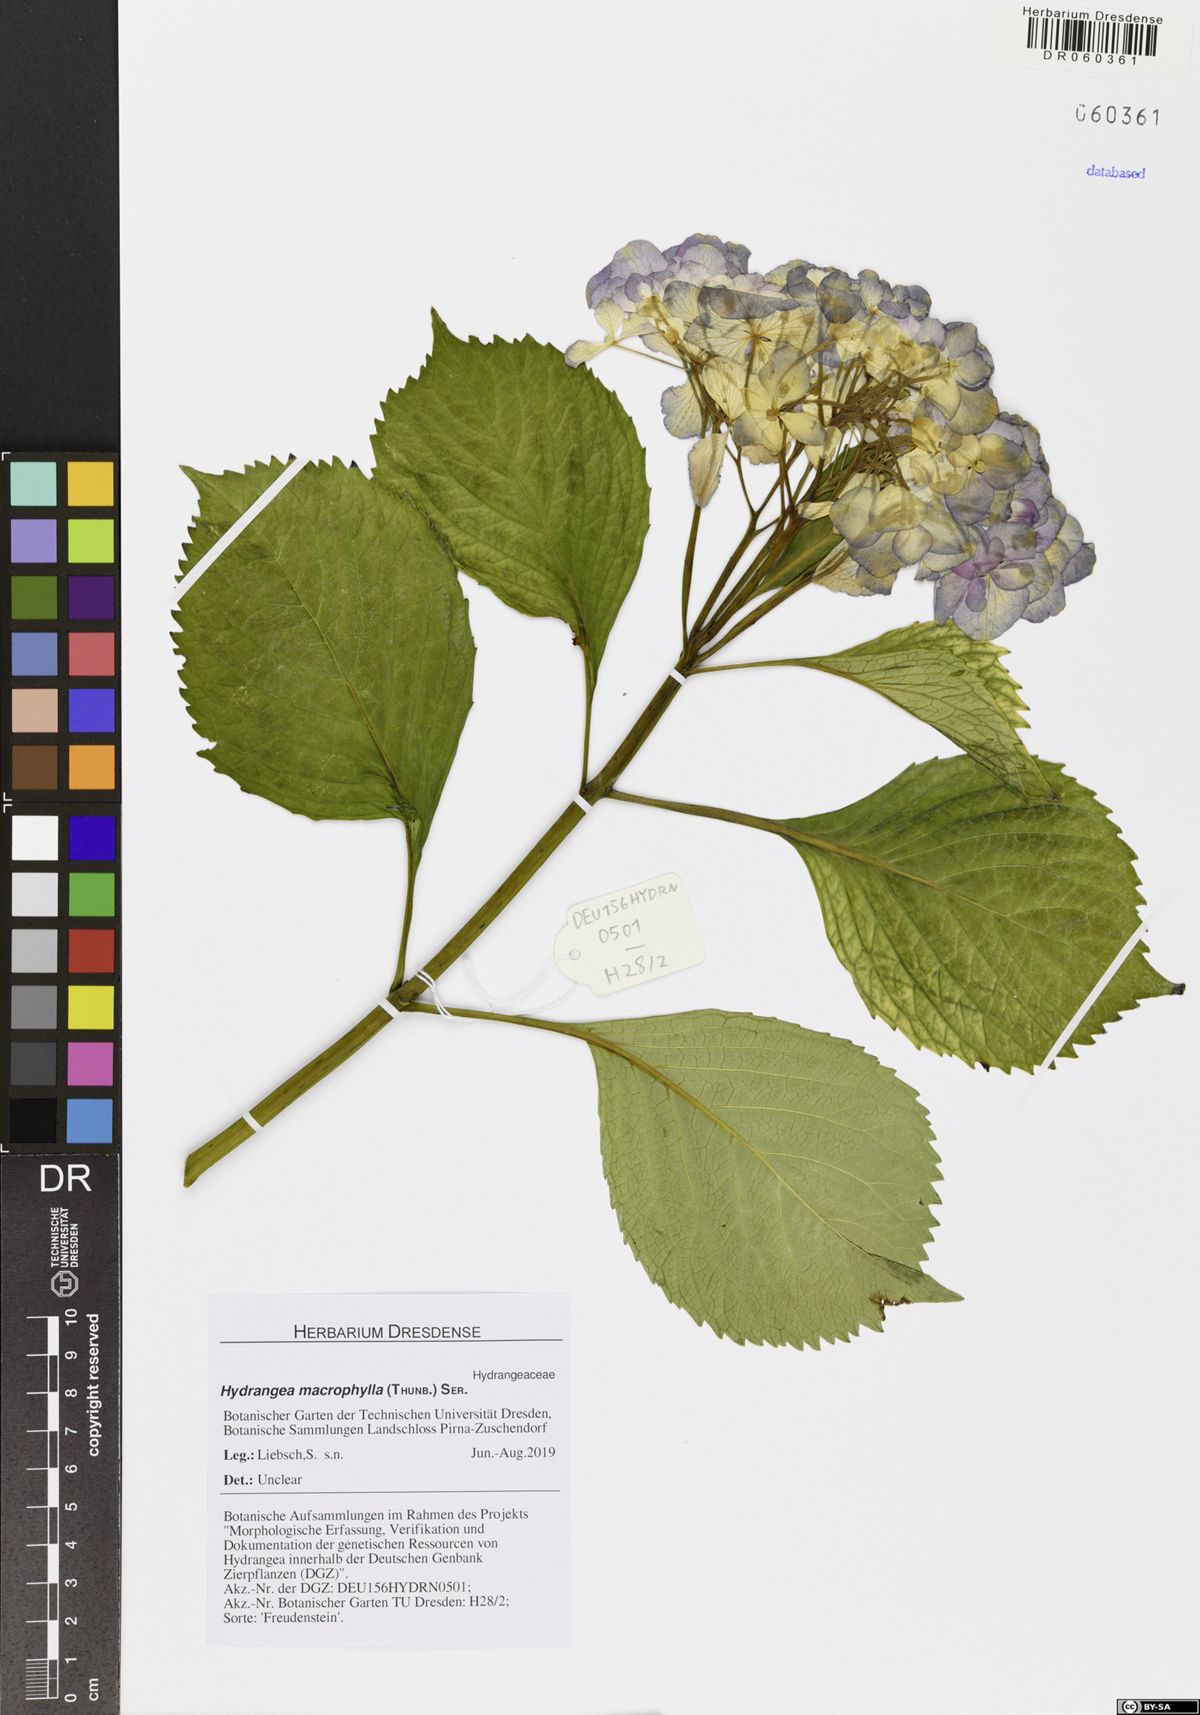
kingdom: Plantae
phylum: Tracheophyta
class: Magnoliopsida
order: Cornales
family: Hydrangeaceae
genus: Hydrangea
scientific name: Hydrangea macrophylla
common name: Hydrangea
